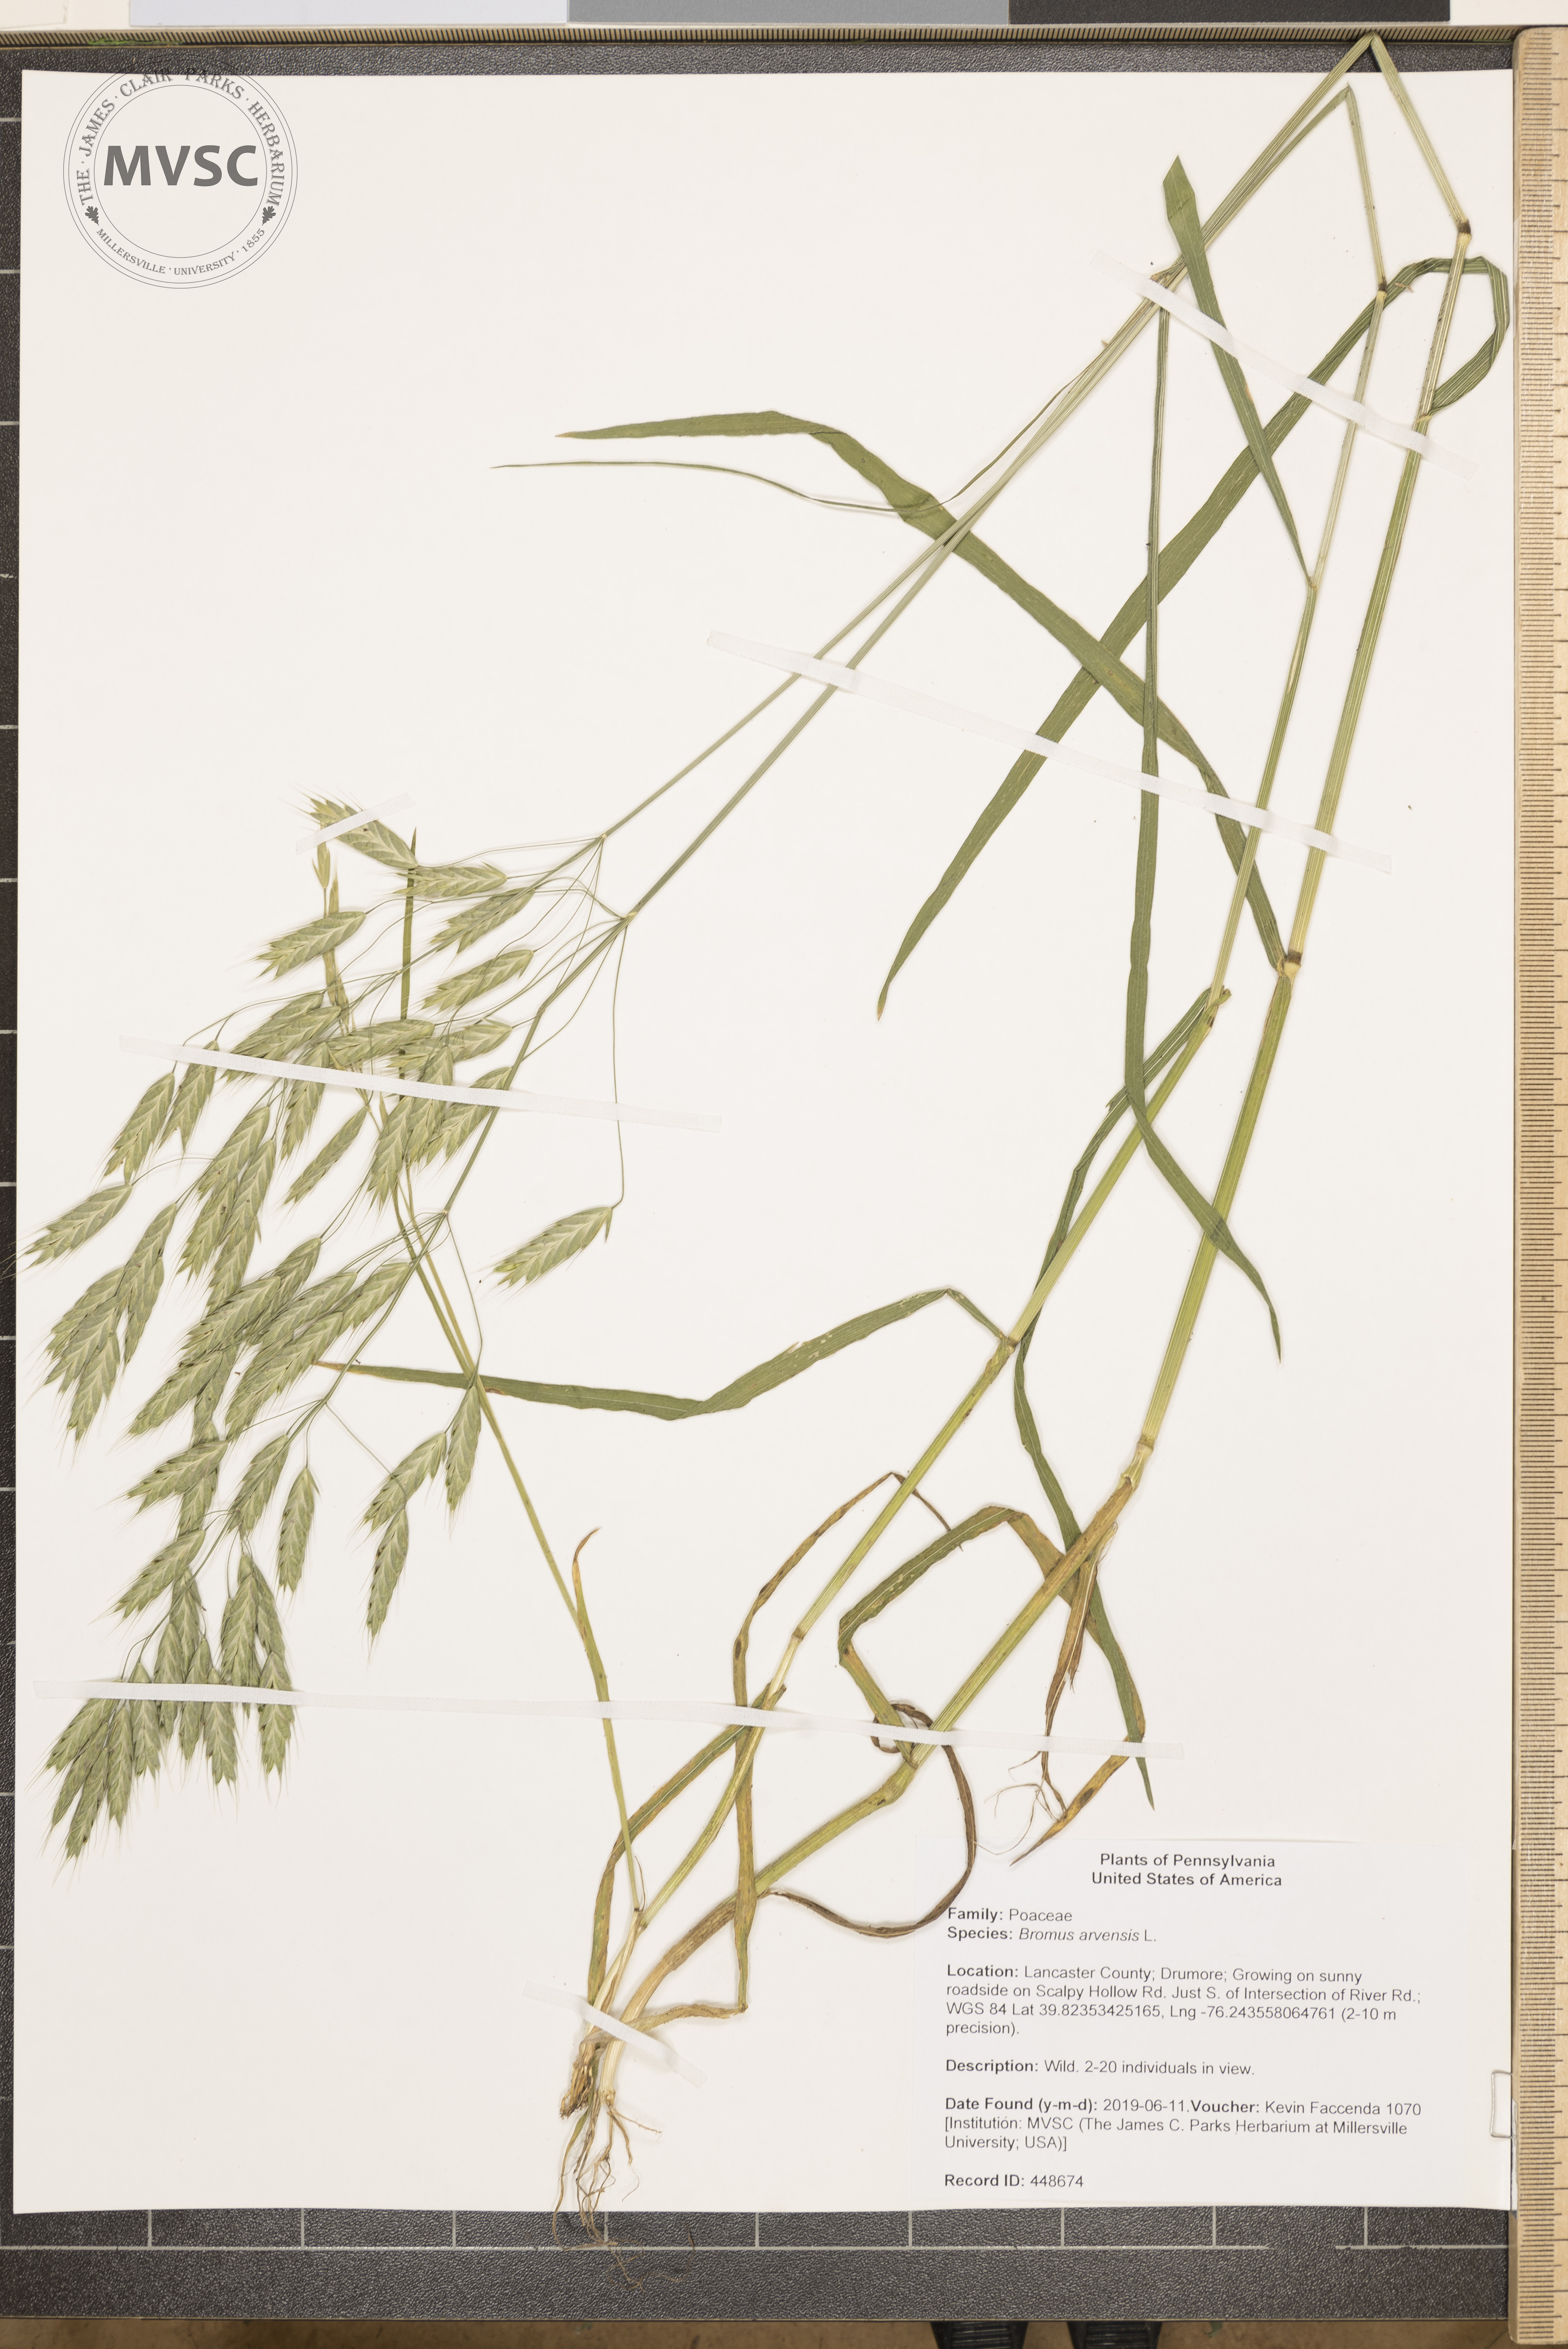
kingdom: Plantae
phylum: Tracheophyta
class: Liliopsida
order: Poales
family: Poaceae
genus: Bromus
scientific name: Bromus arvensis
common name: Field brome
